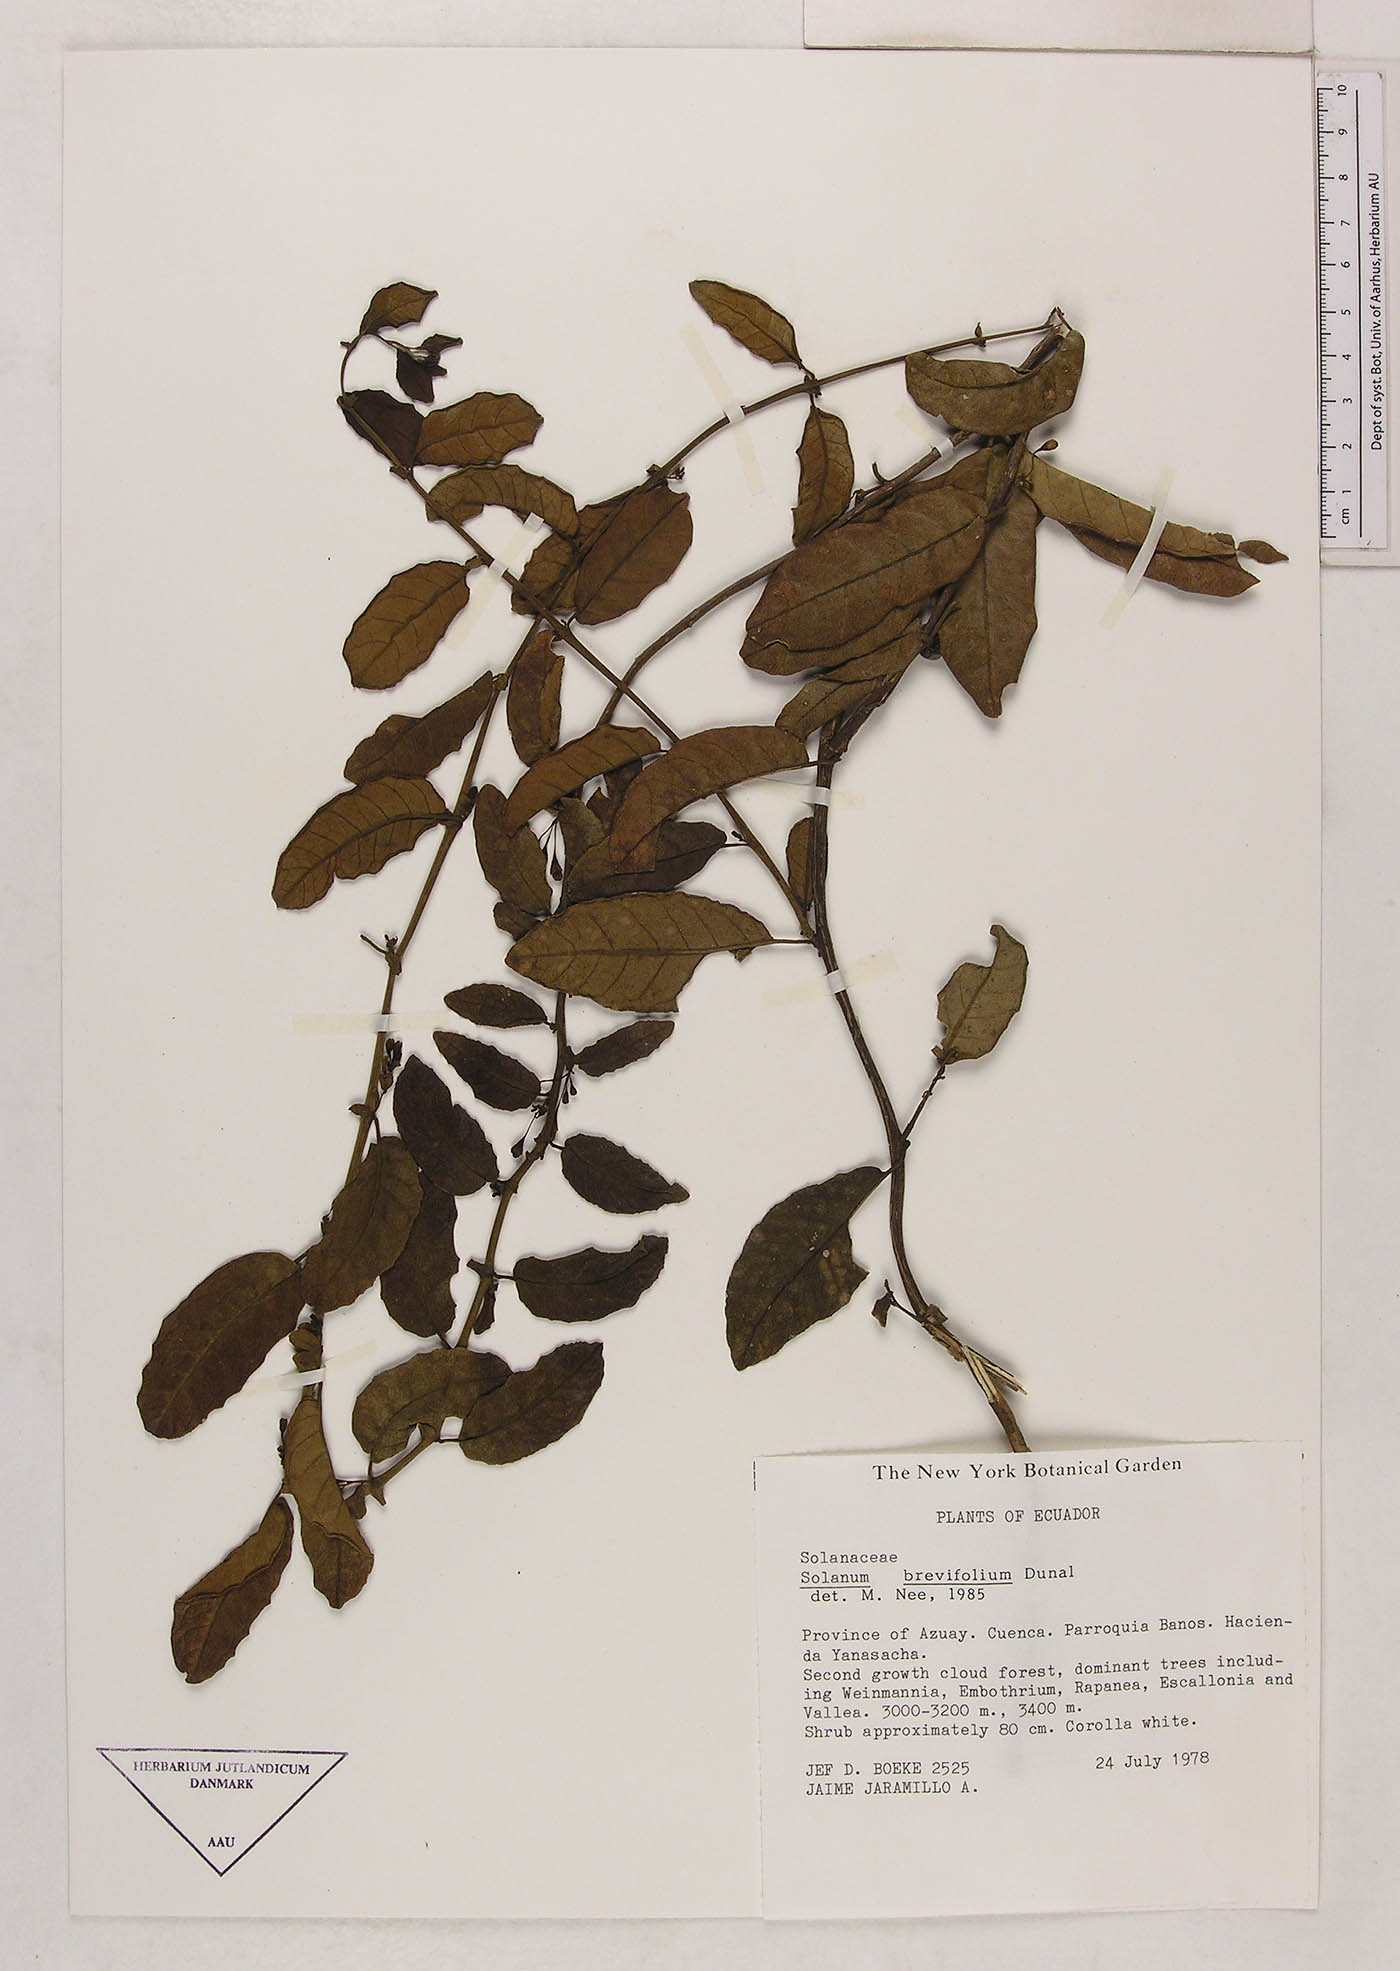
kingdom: Plantae
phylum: Tracheophyta
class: Magnoliopsida
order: Solanales
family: Solanaceae
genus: Solanum
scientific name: Solanum brevifolium
